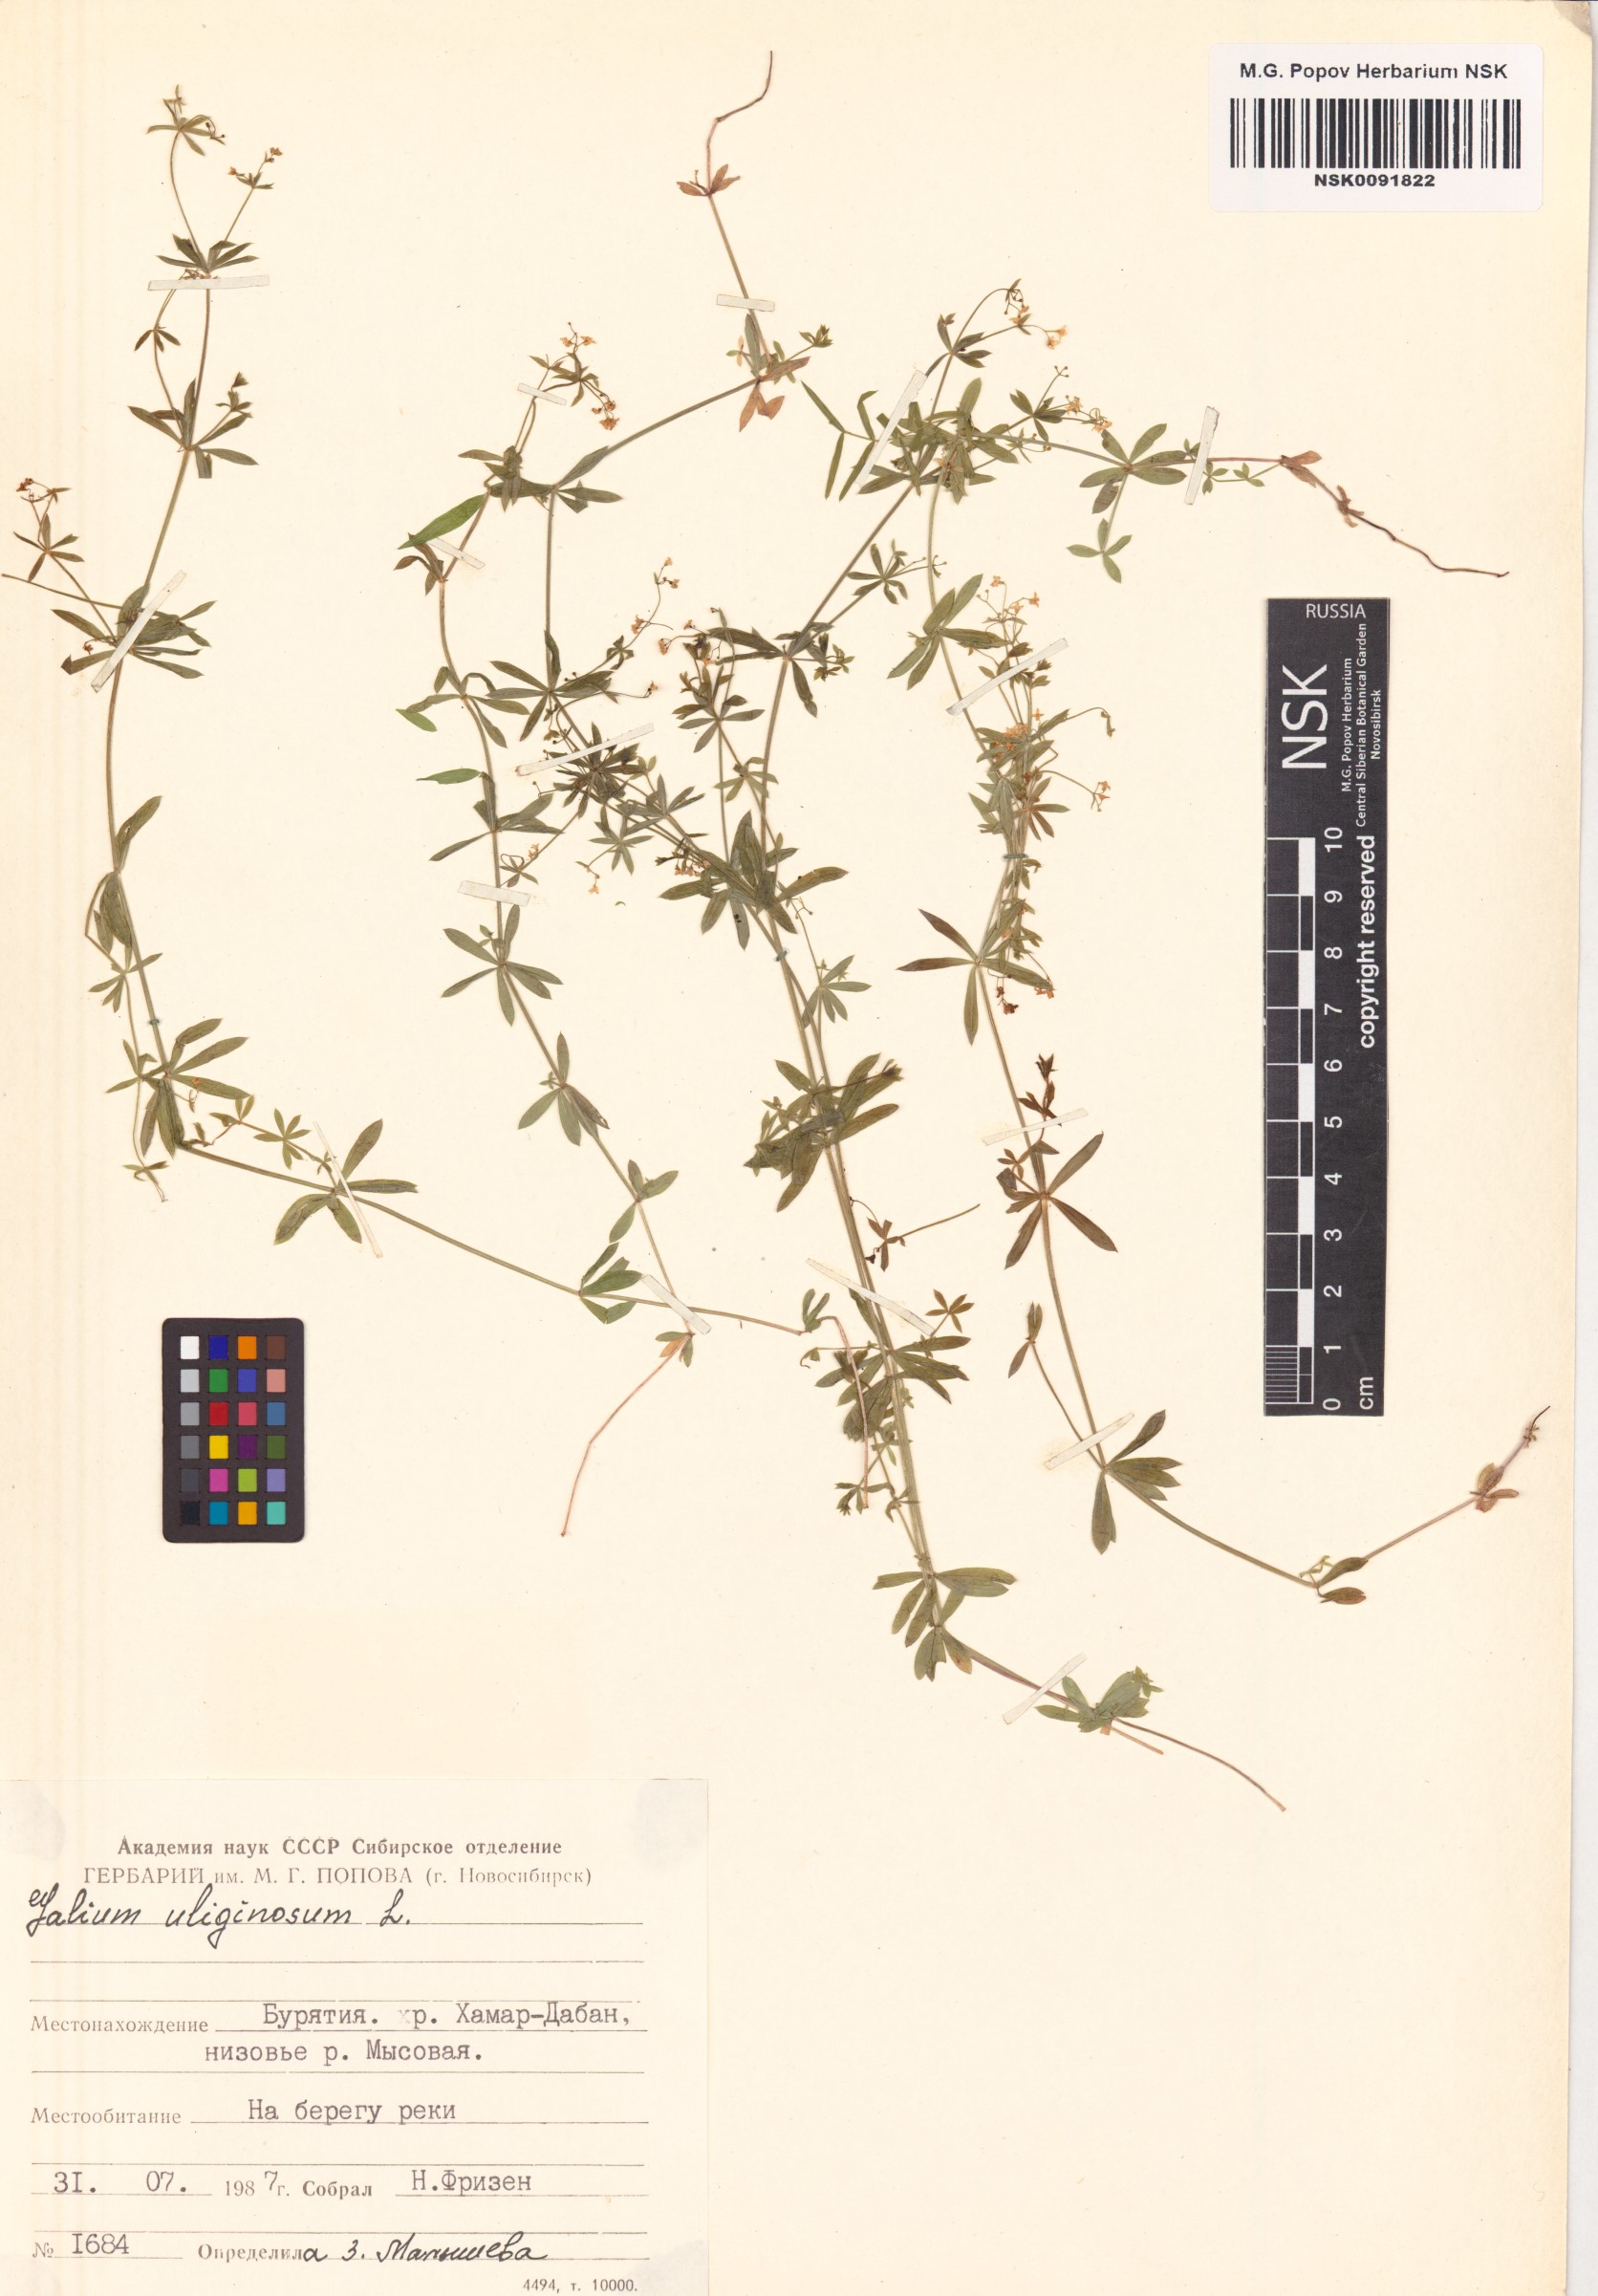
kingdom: Plantae
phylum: Tracheophyta
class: Magnoliopsida
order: Gentianales
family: Rubiaceae
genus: Galium
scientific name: Galium uliginosum
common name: Fen bedstraw
